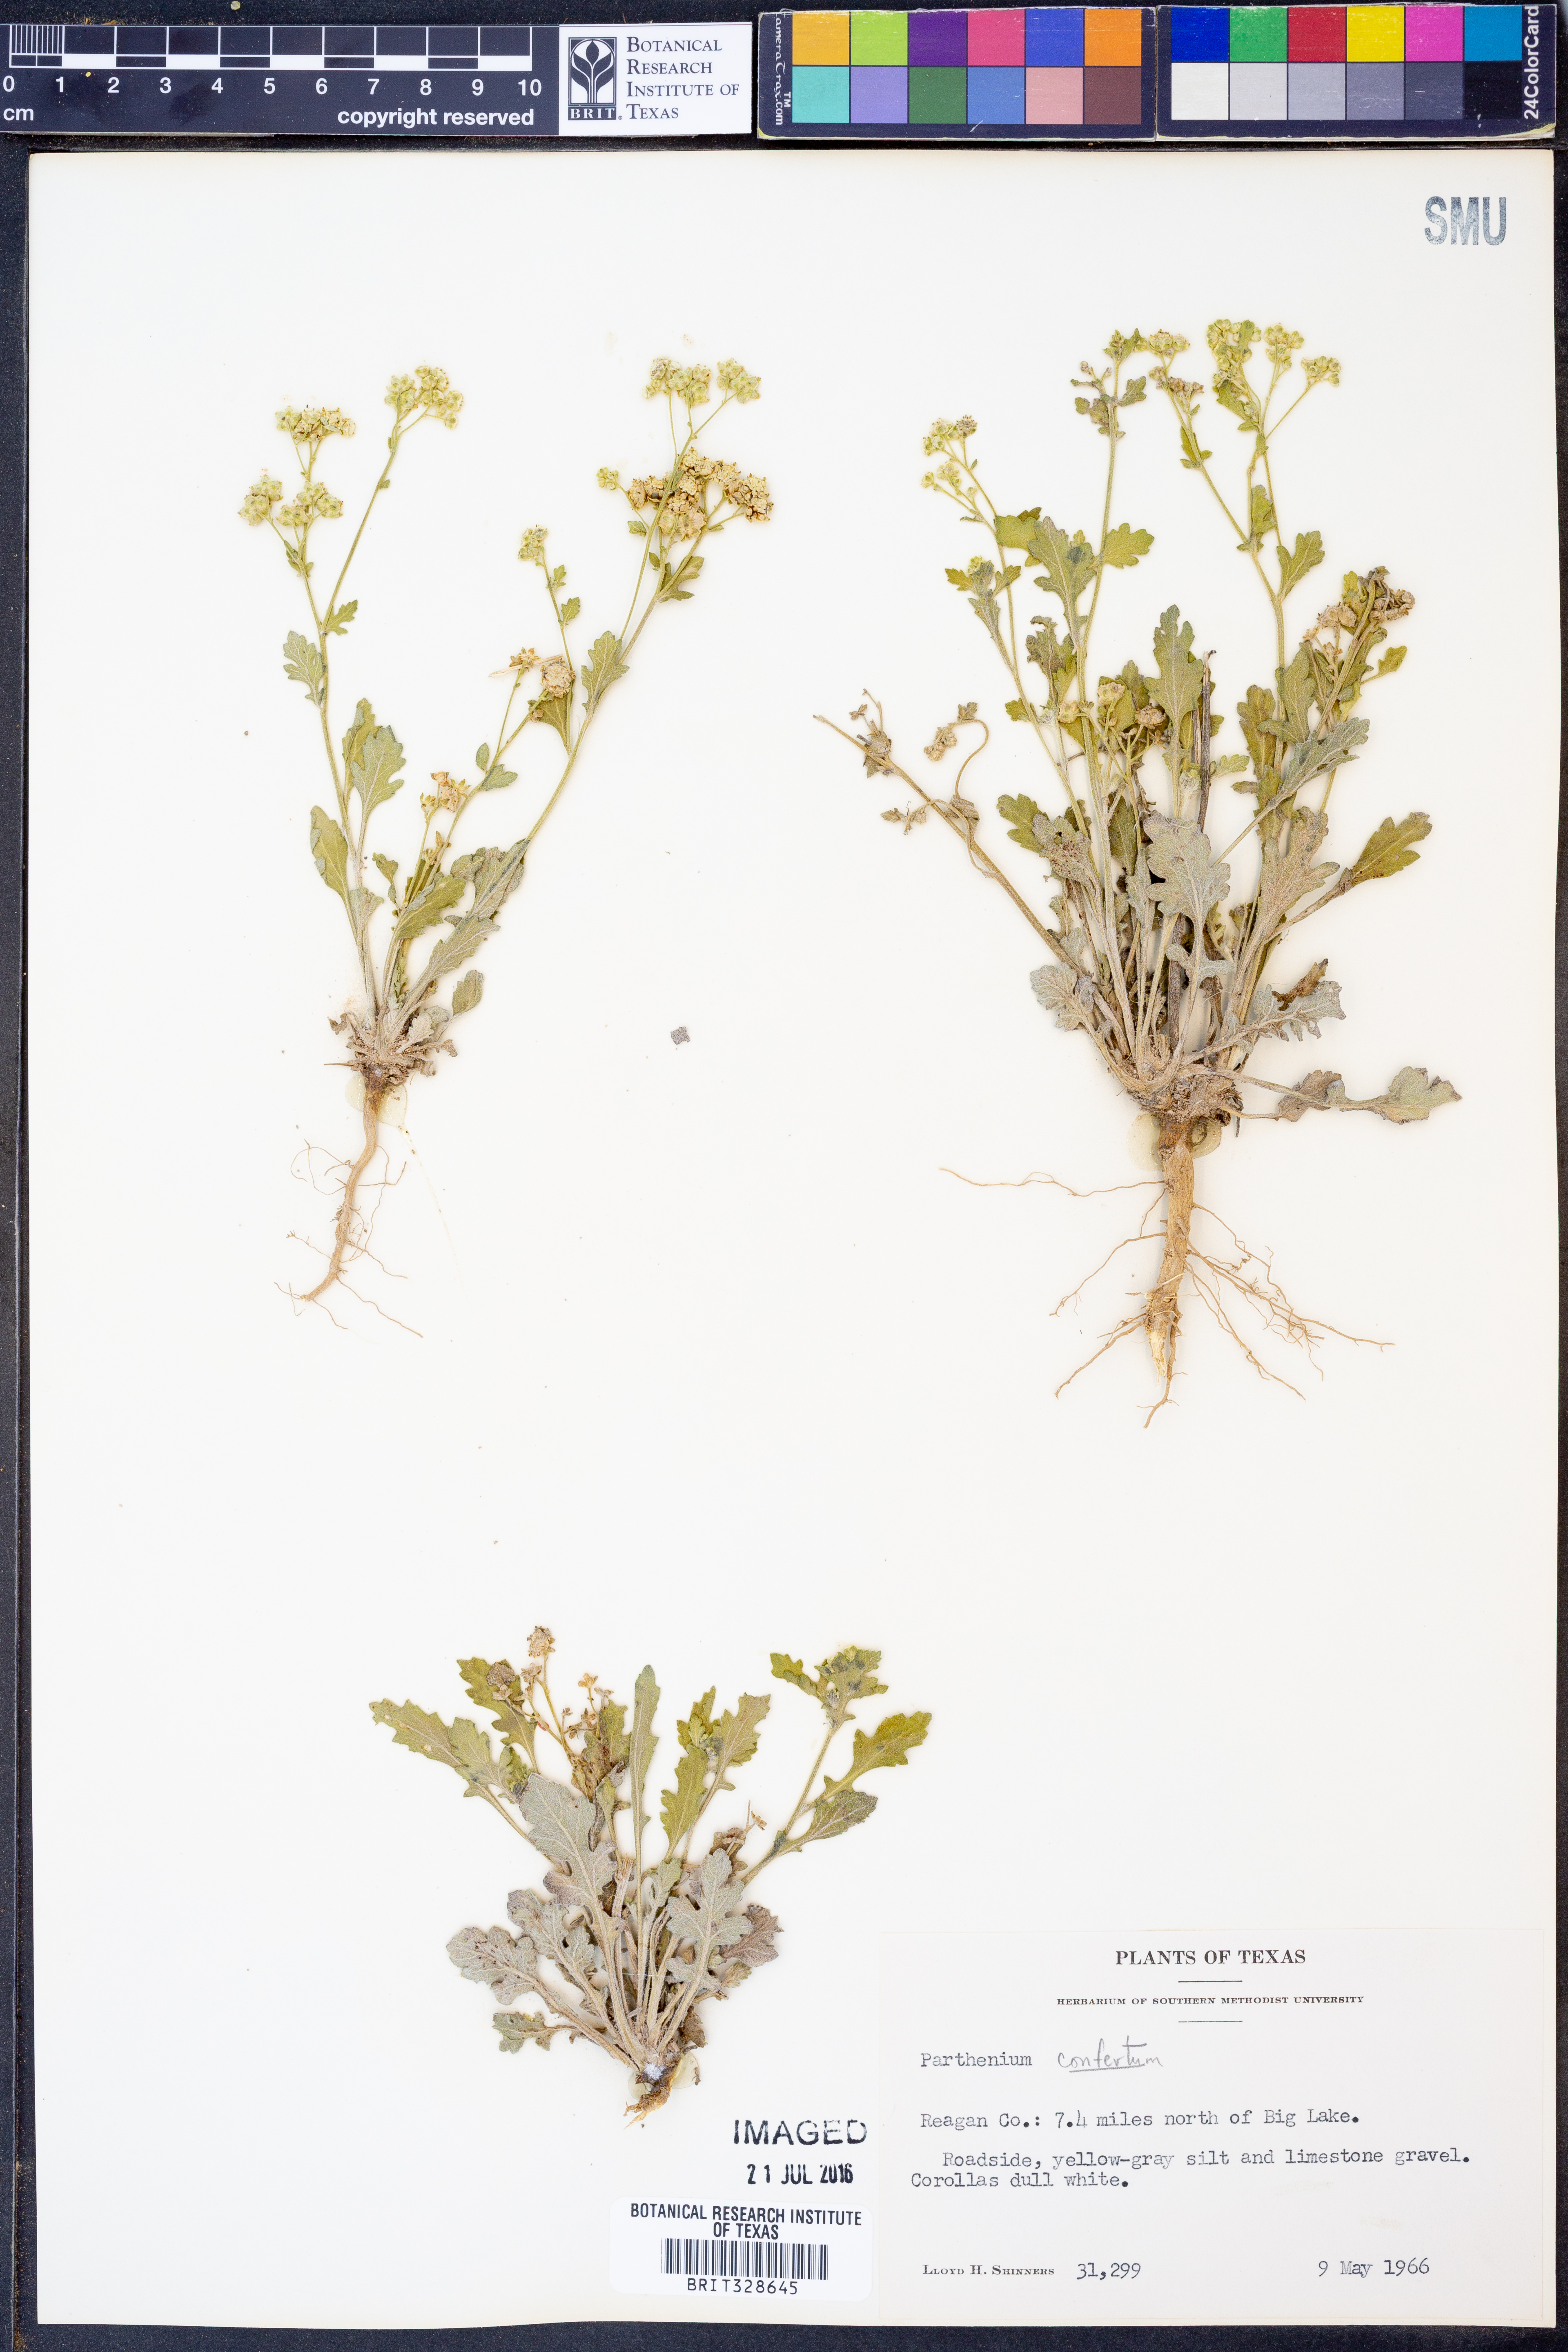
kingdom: Plantae
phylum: Tracheophyta
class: Magnoliopsida
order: Asterales
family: Asteraceae
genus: Parthenium
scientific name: Parthenium confertum
